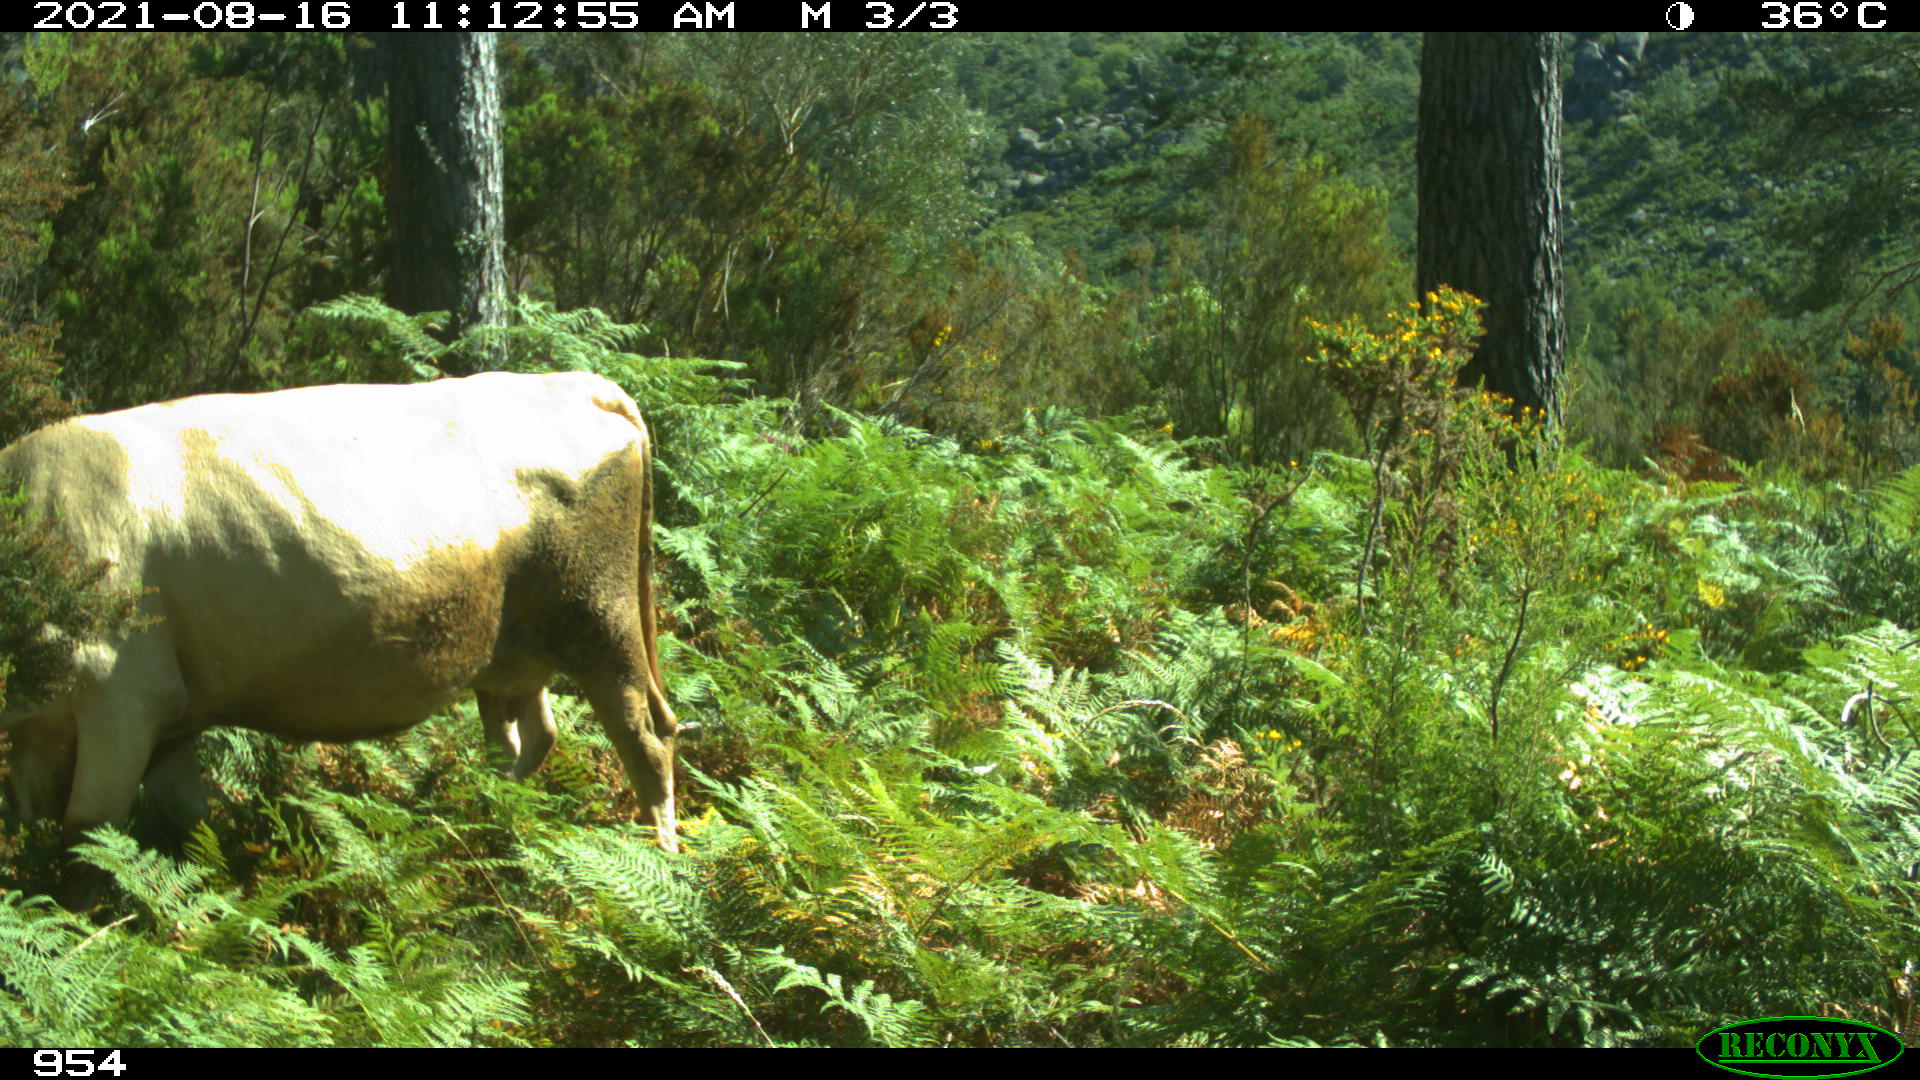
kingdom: Animalia
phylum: Chordata
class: Mammalia
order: Artiodactyla
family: Bovidae
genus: Bos
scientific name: Bos taurus
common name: Domesticated cattle
